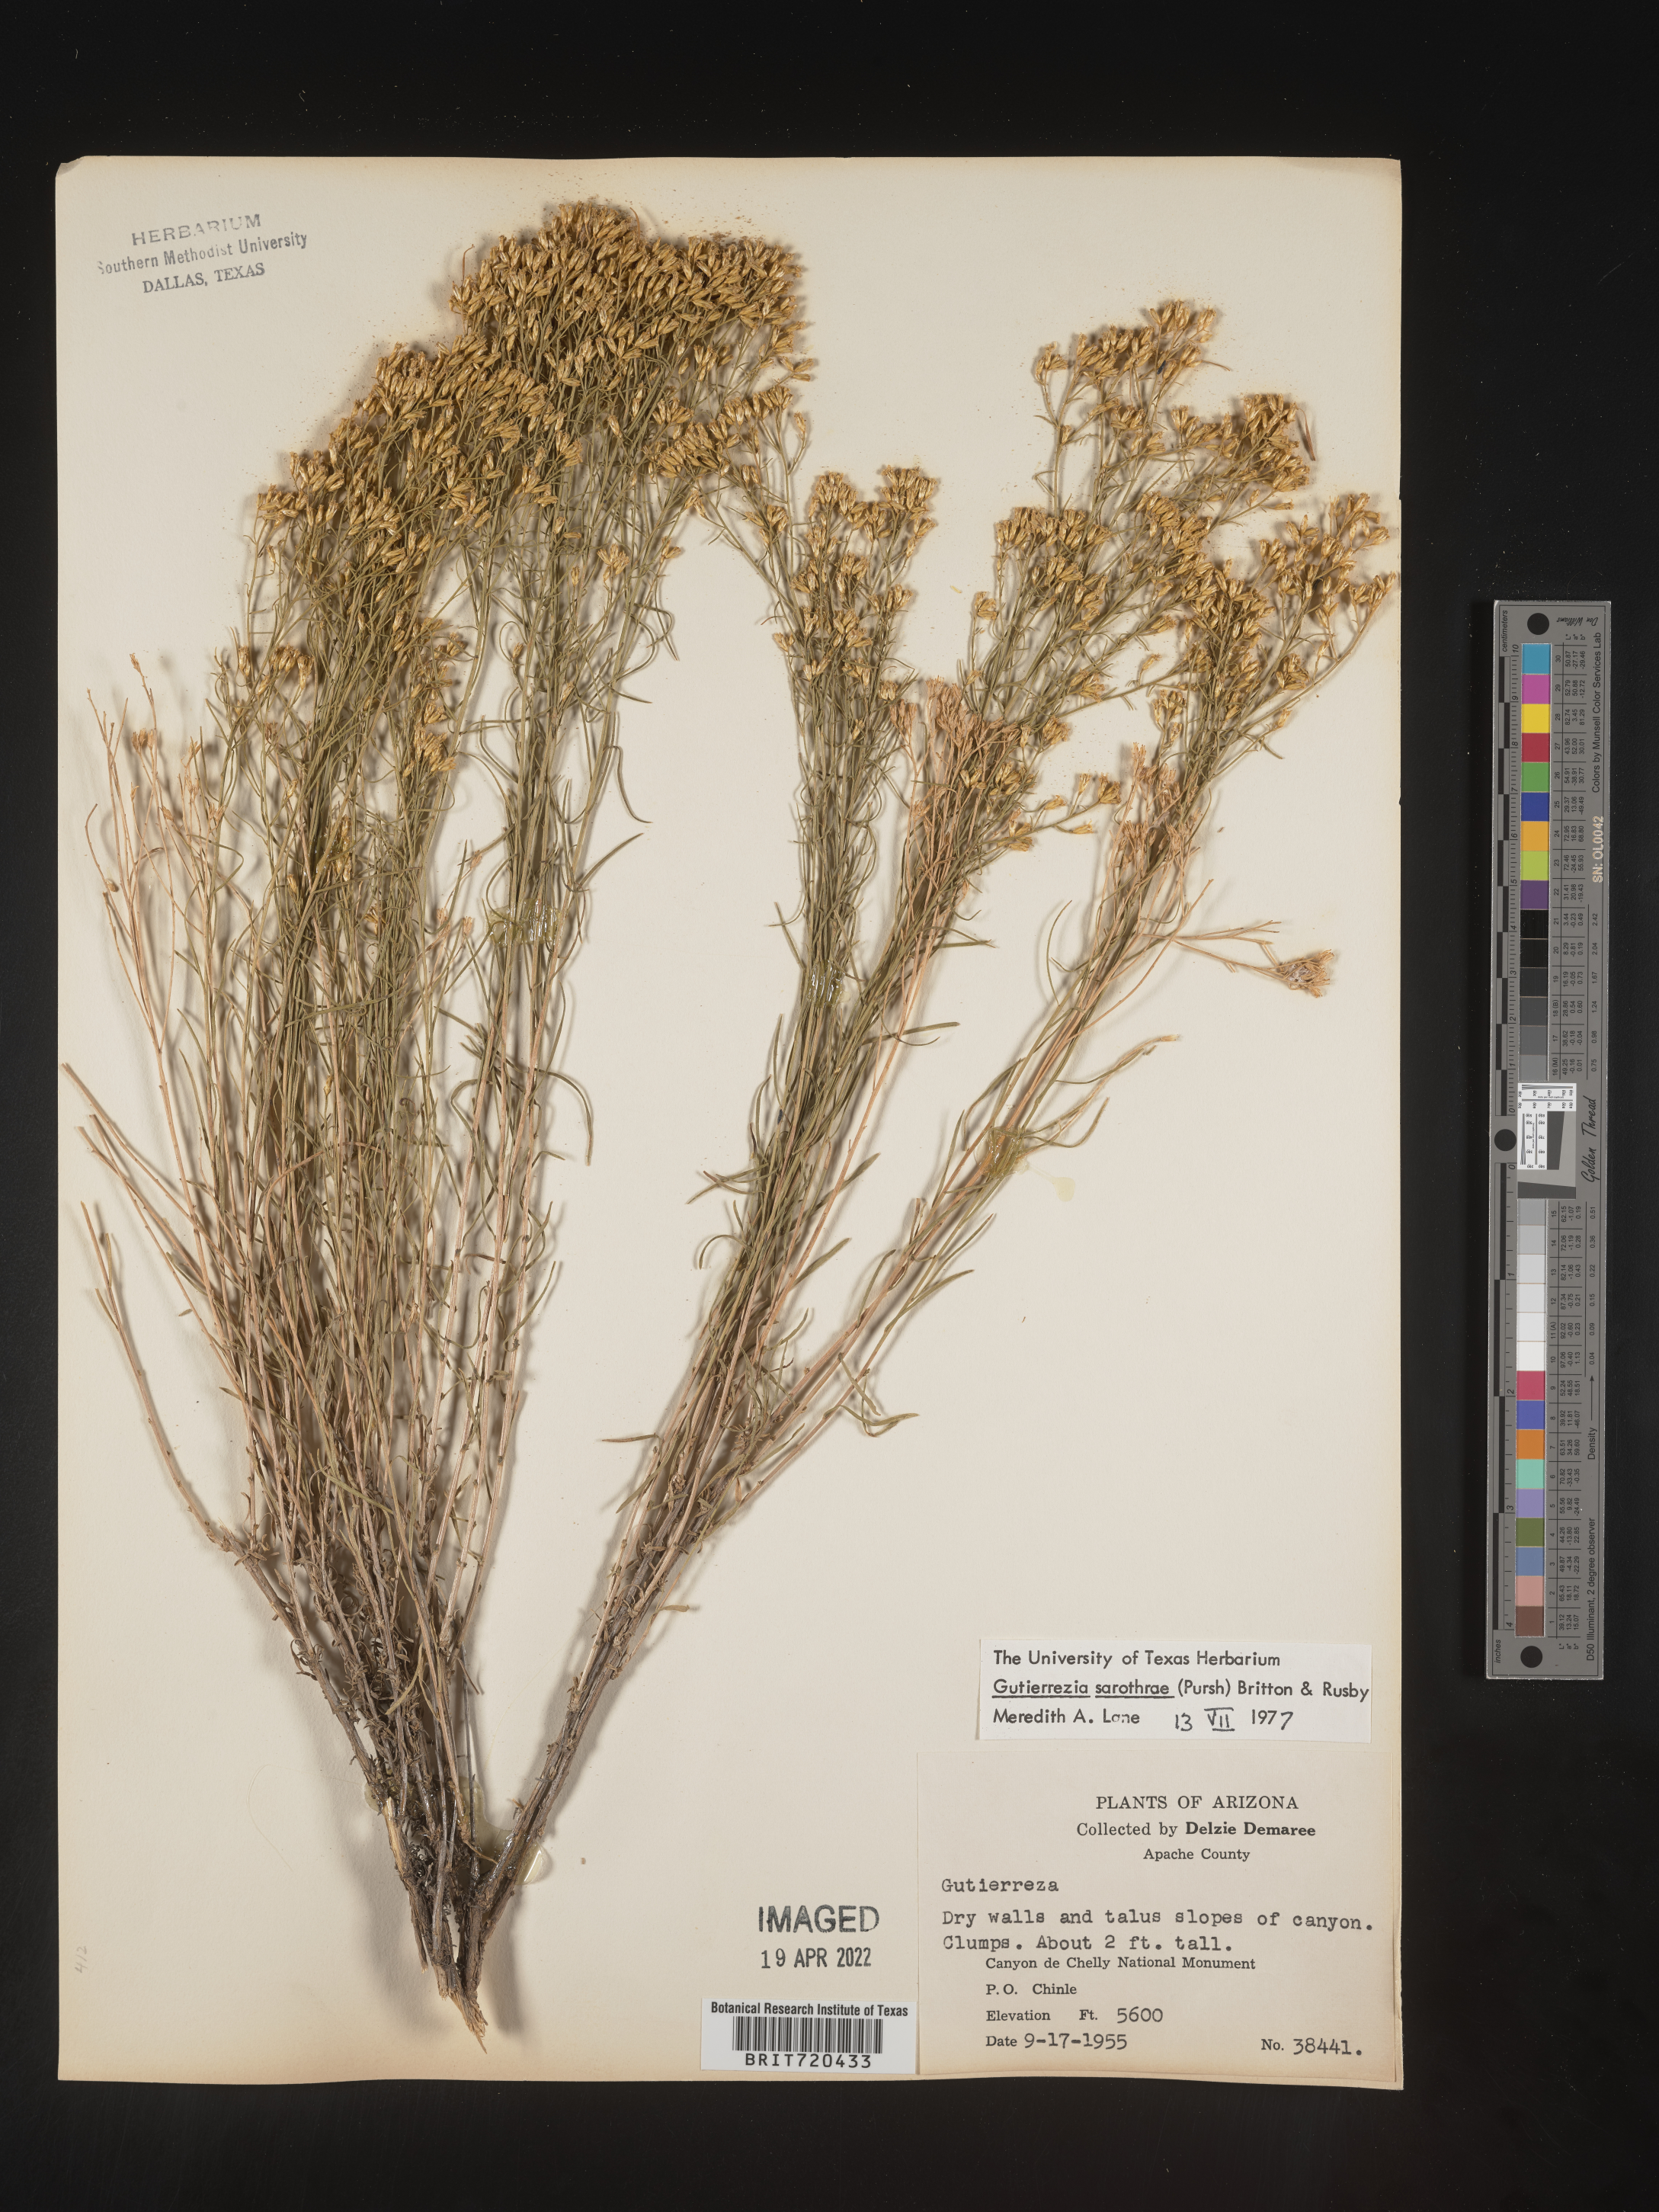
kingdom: Plantae
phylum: Tracheophyta
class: Magnoliopsida
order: Asterales
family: Asteraceae
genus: Gutierrezia
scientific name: Gutierrezia sarothrae
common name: Broom snakeweed
